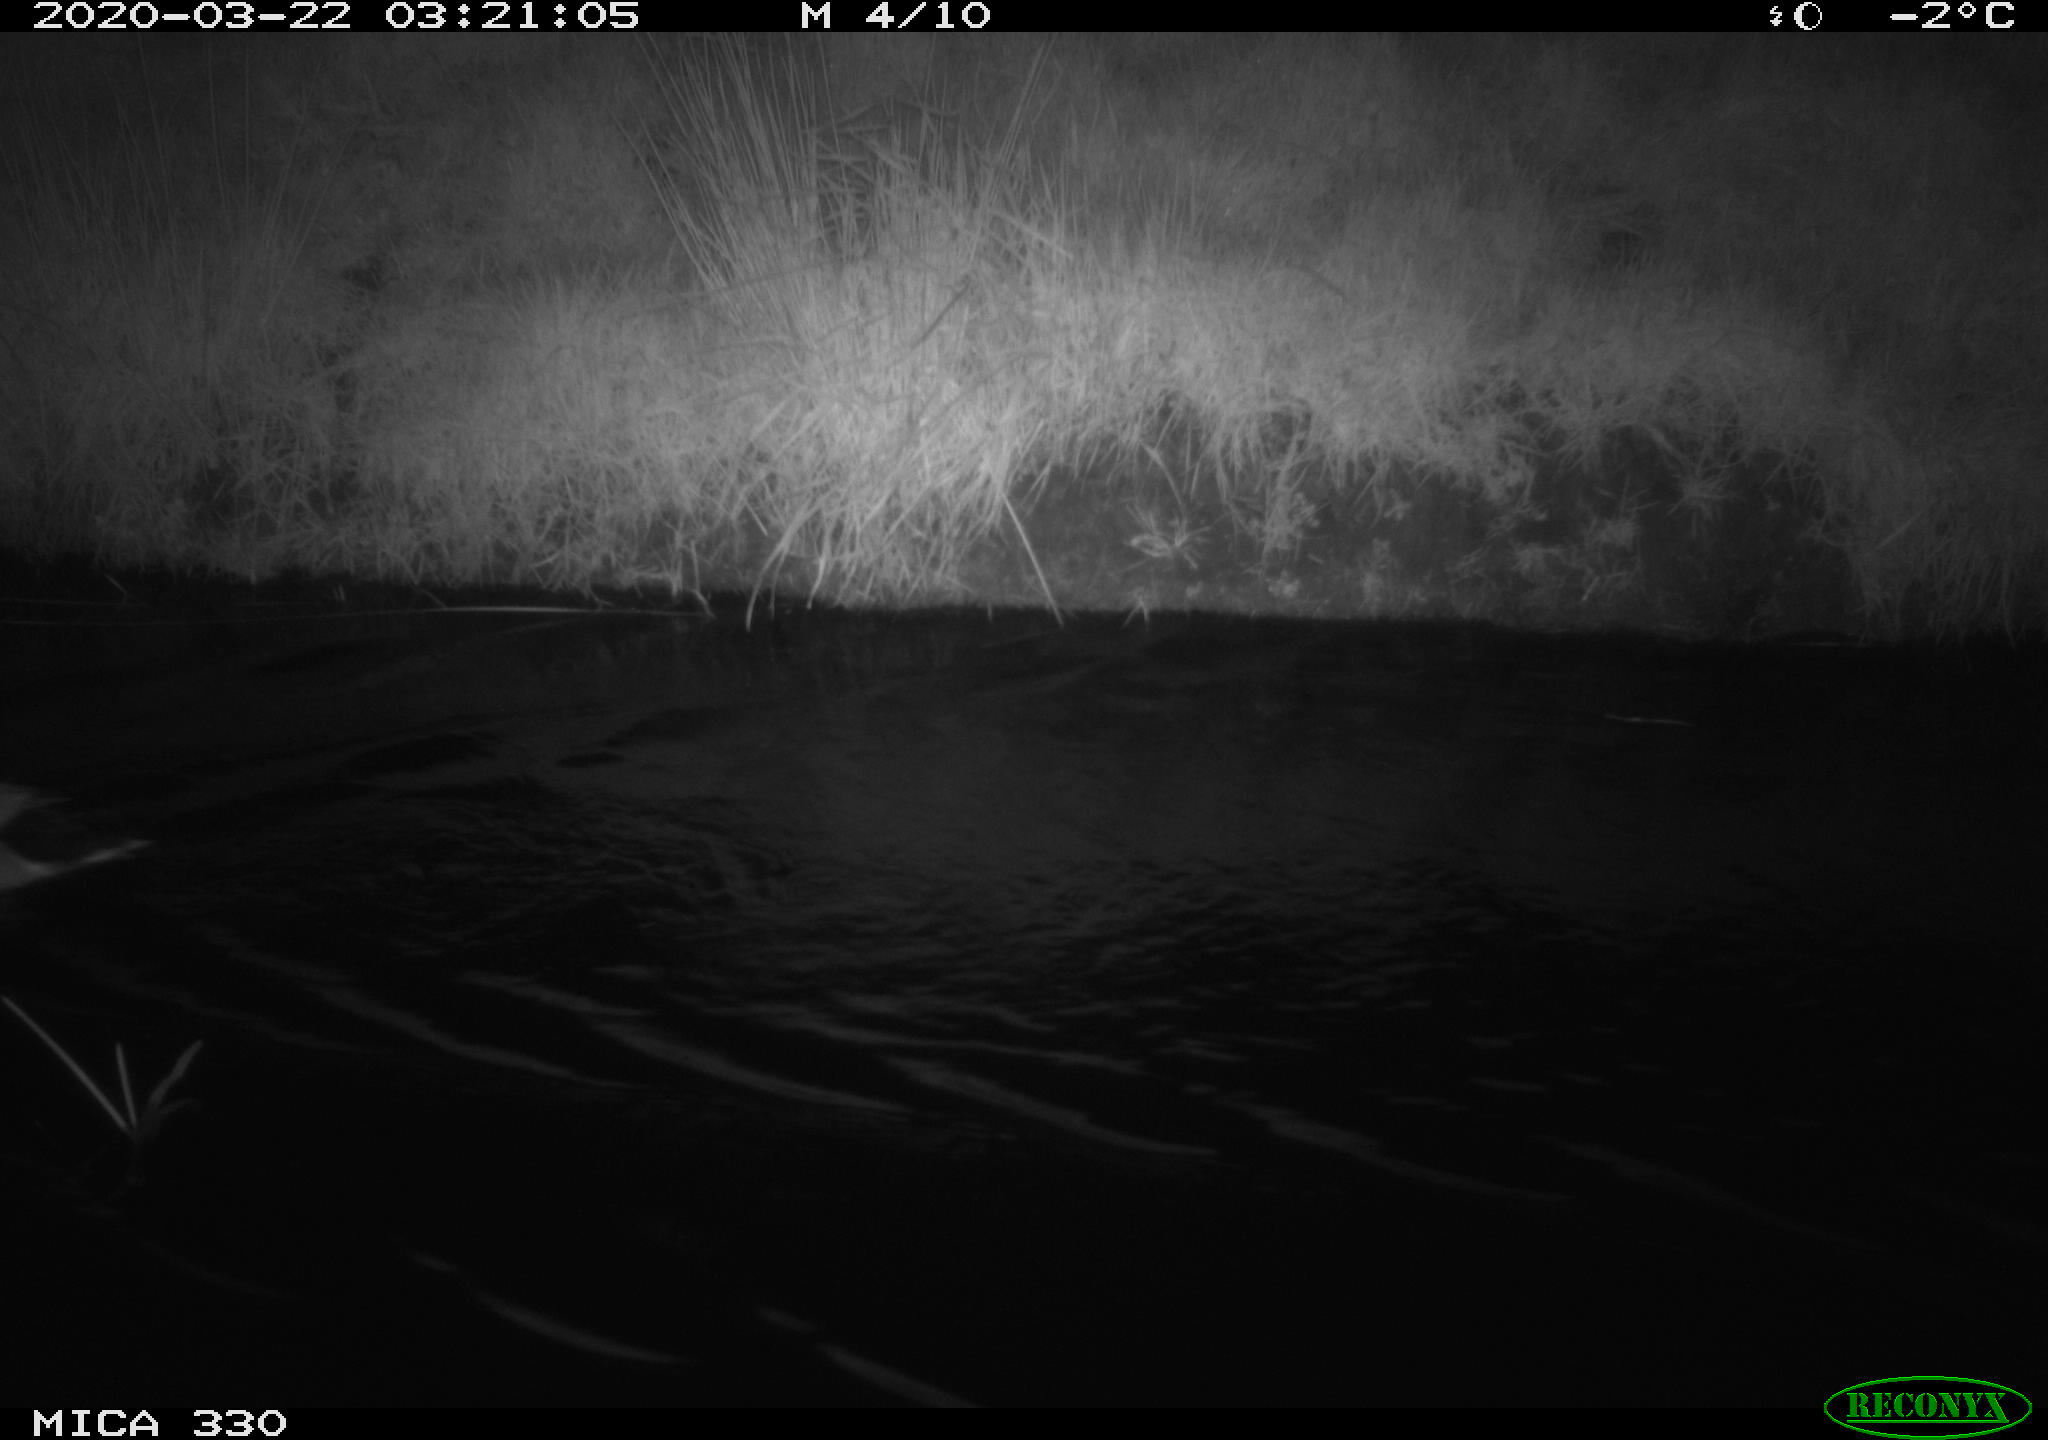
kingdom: Animalia
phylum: Chordata
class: Aves
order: Anseriformes
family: Anatidae
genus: Anas
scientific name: Anas platyrhynchos
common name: Mallard
